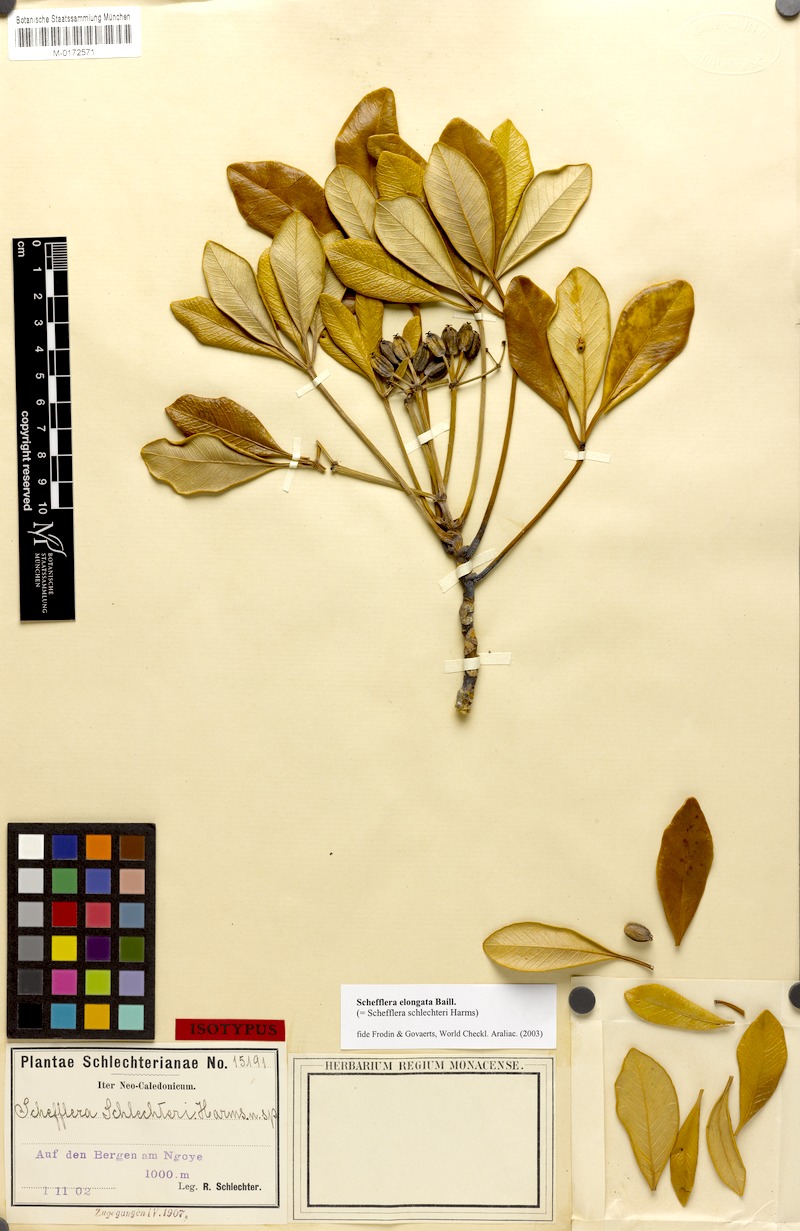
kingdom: Plantae
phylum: Tracheophyta
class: Magnoliopsida
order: Apiales
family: Araliaceae
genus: Plerandra
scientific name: Plerandra elongata
